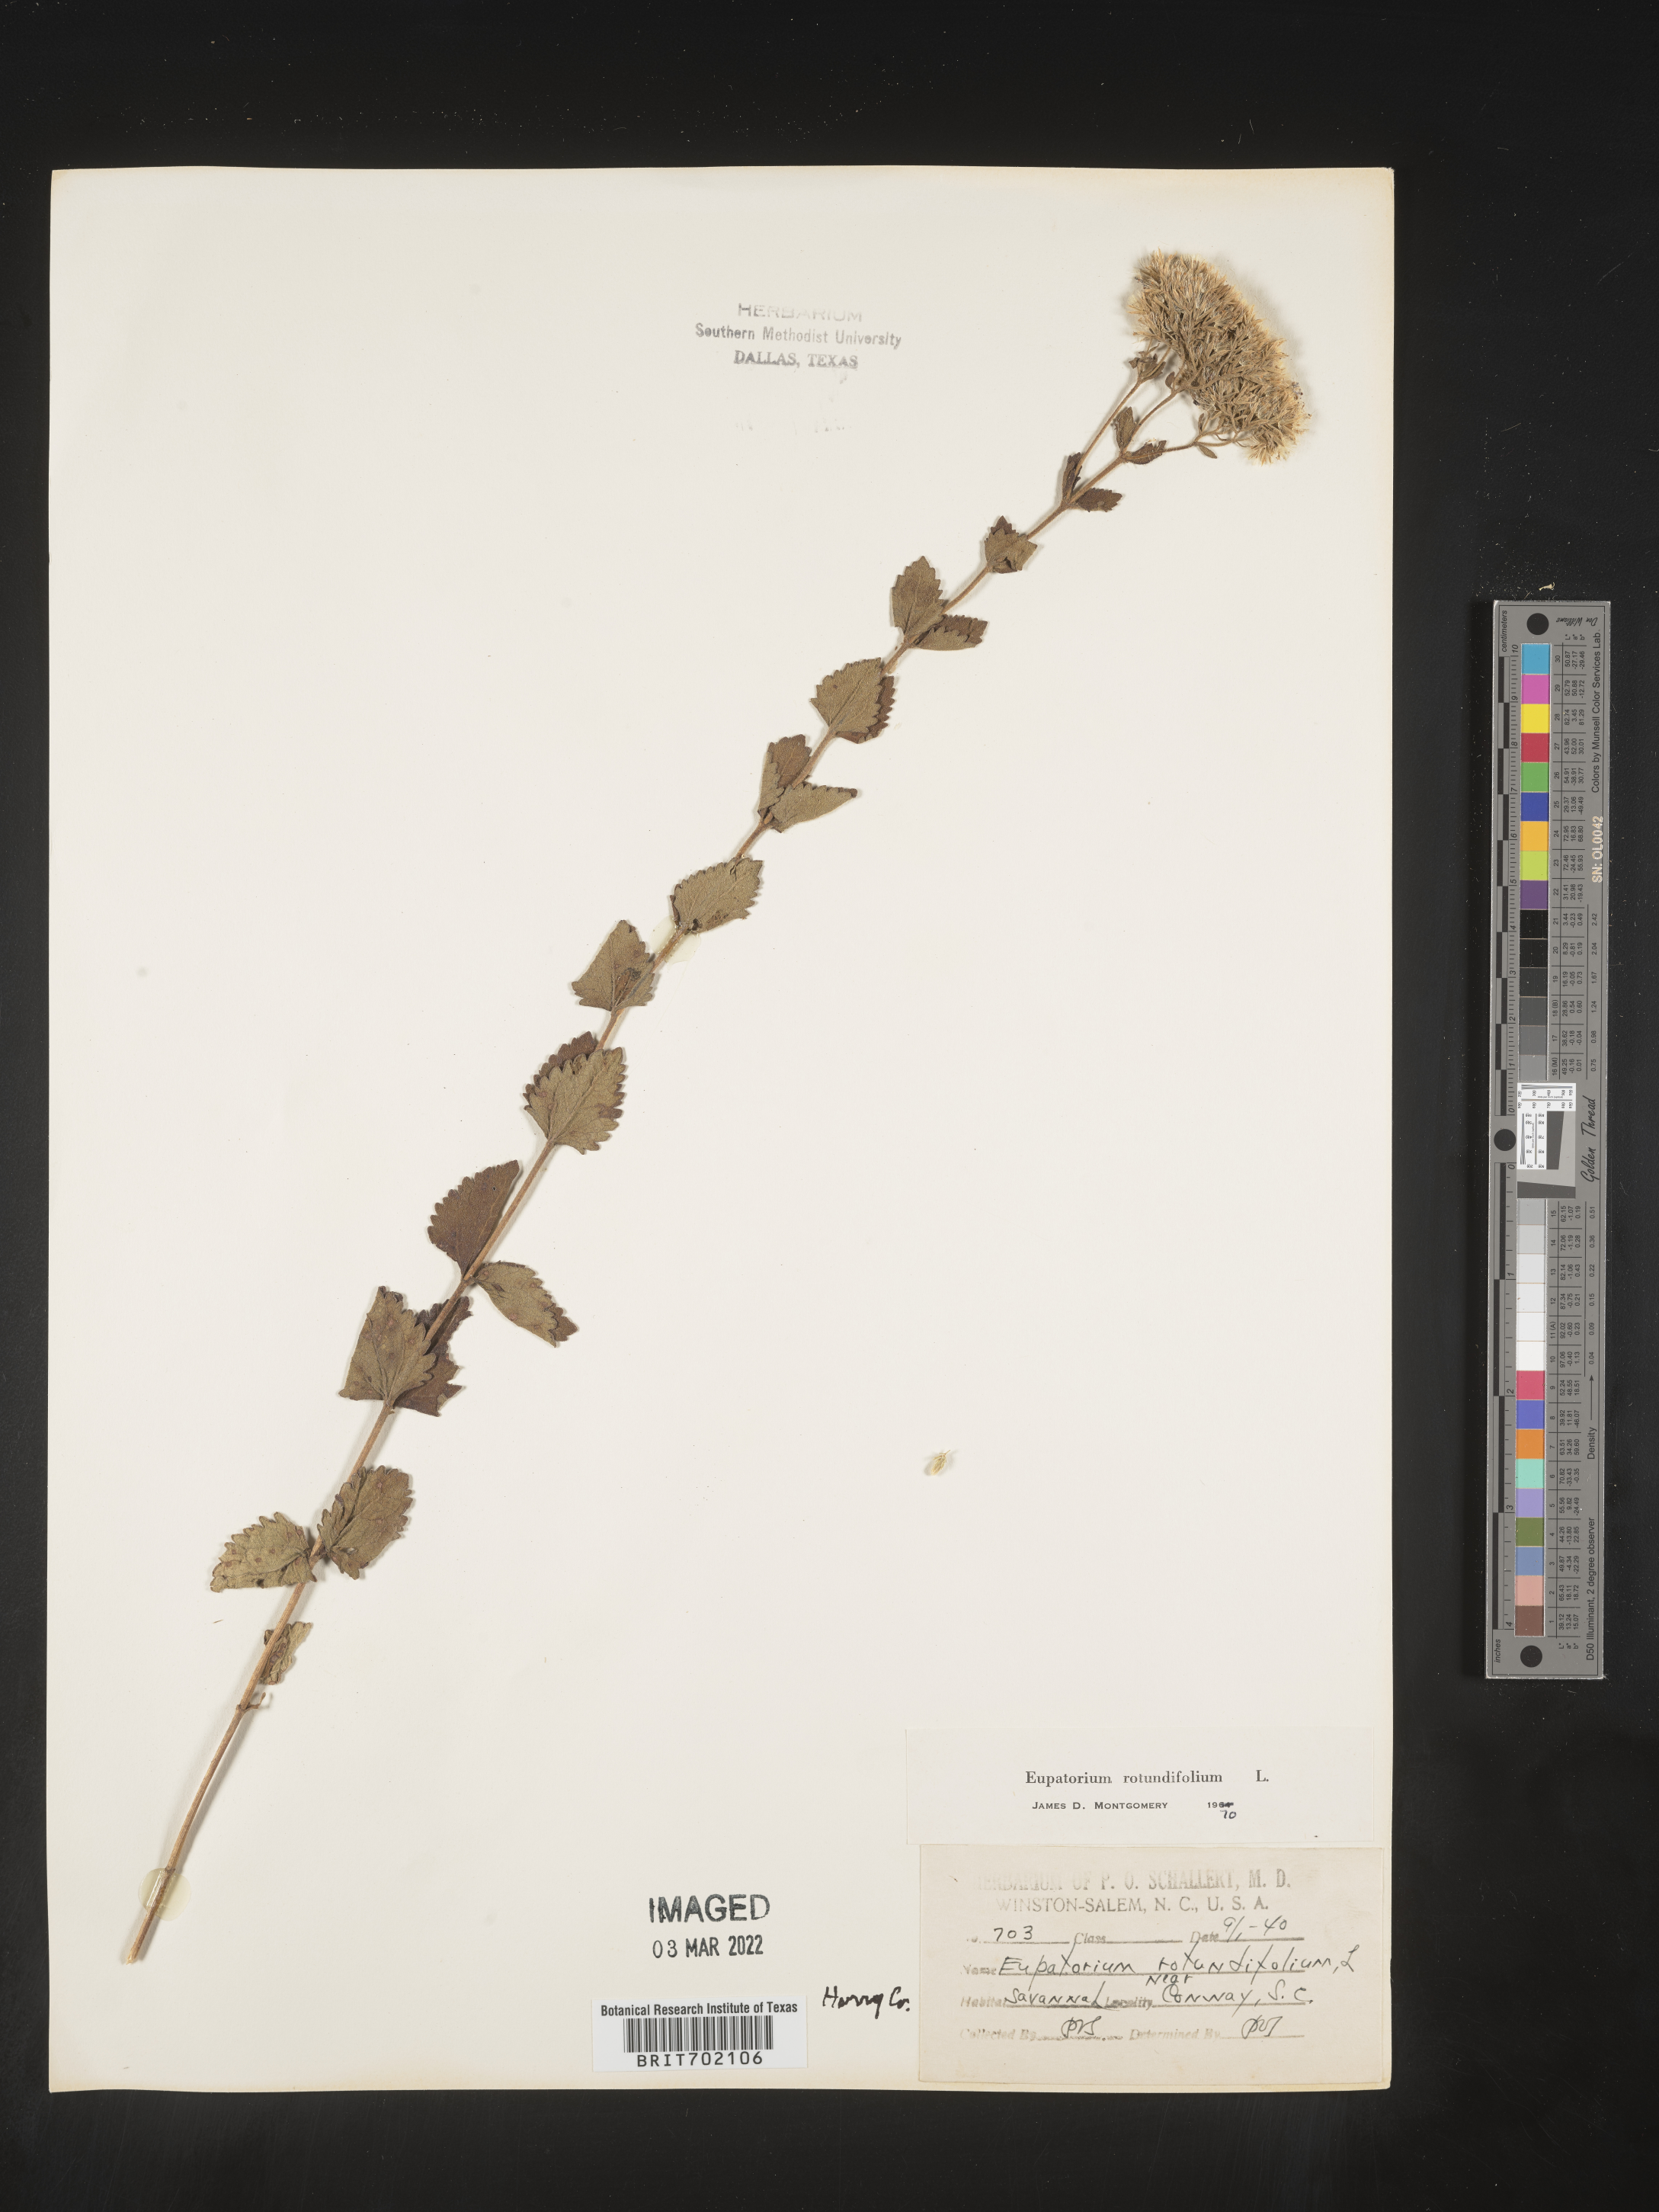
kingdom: Plantae
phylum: Tracheophyta
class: Magnoliopsida
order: Asterales
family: Asteraceae
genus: Eupatorium
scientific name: Eupatorium rotundifolium
